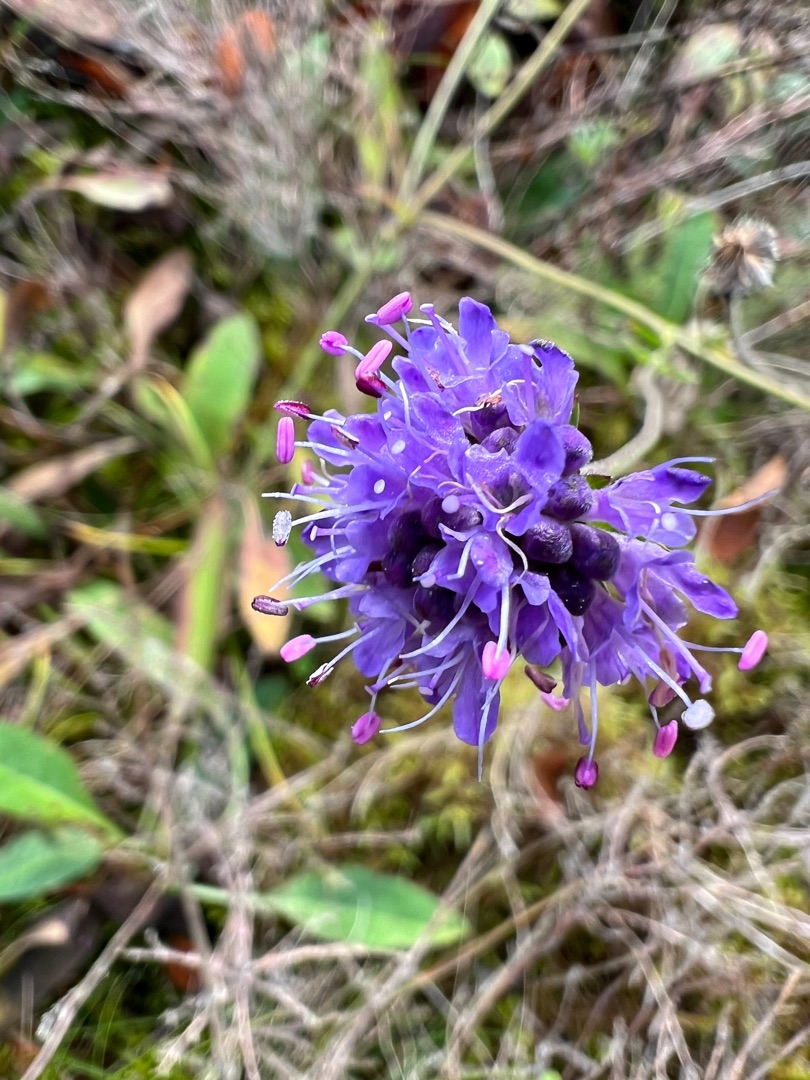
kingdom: Plantae
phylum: Tracheophyta
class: Magnoliopsida
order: Dipsacales
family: Caprifoliaceae
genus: Succisa
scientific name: Succisa pratensis
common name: Djævelsbid
